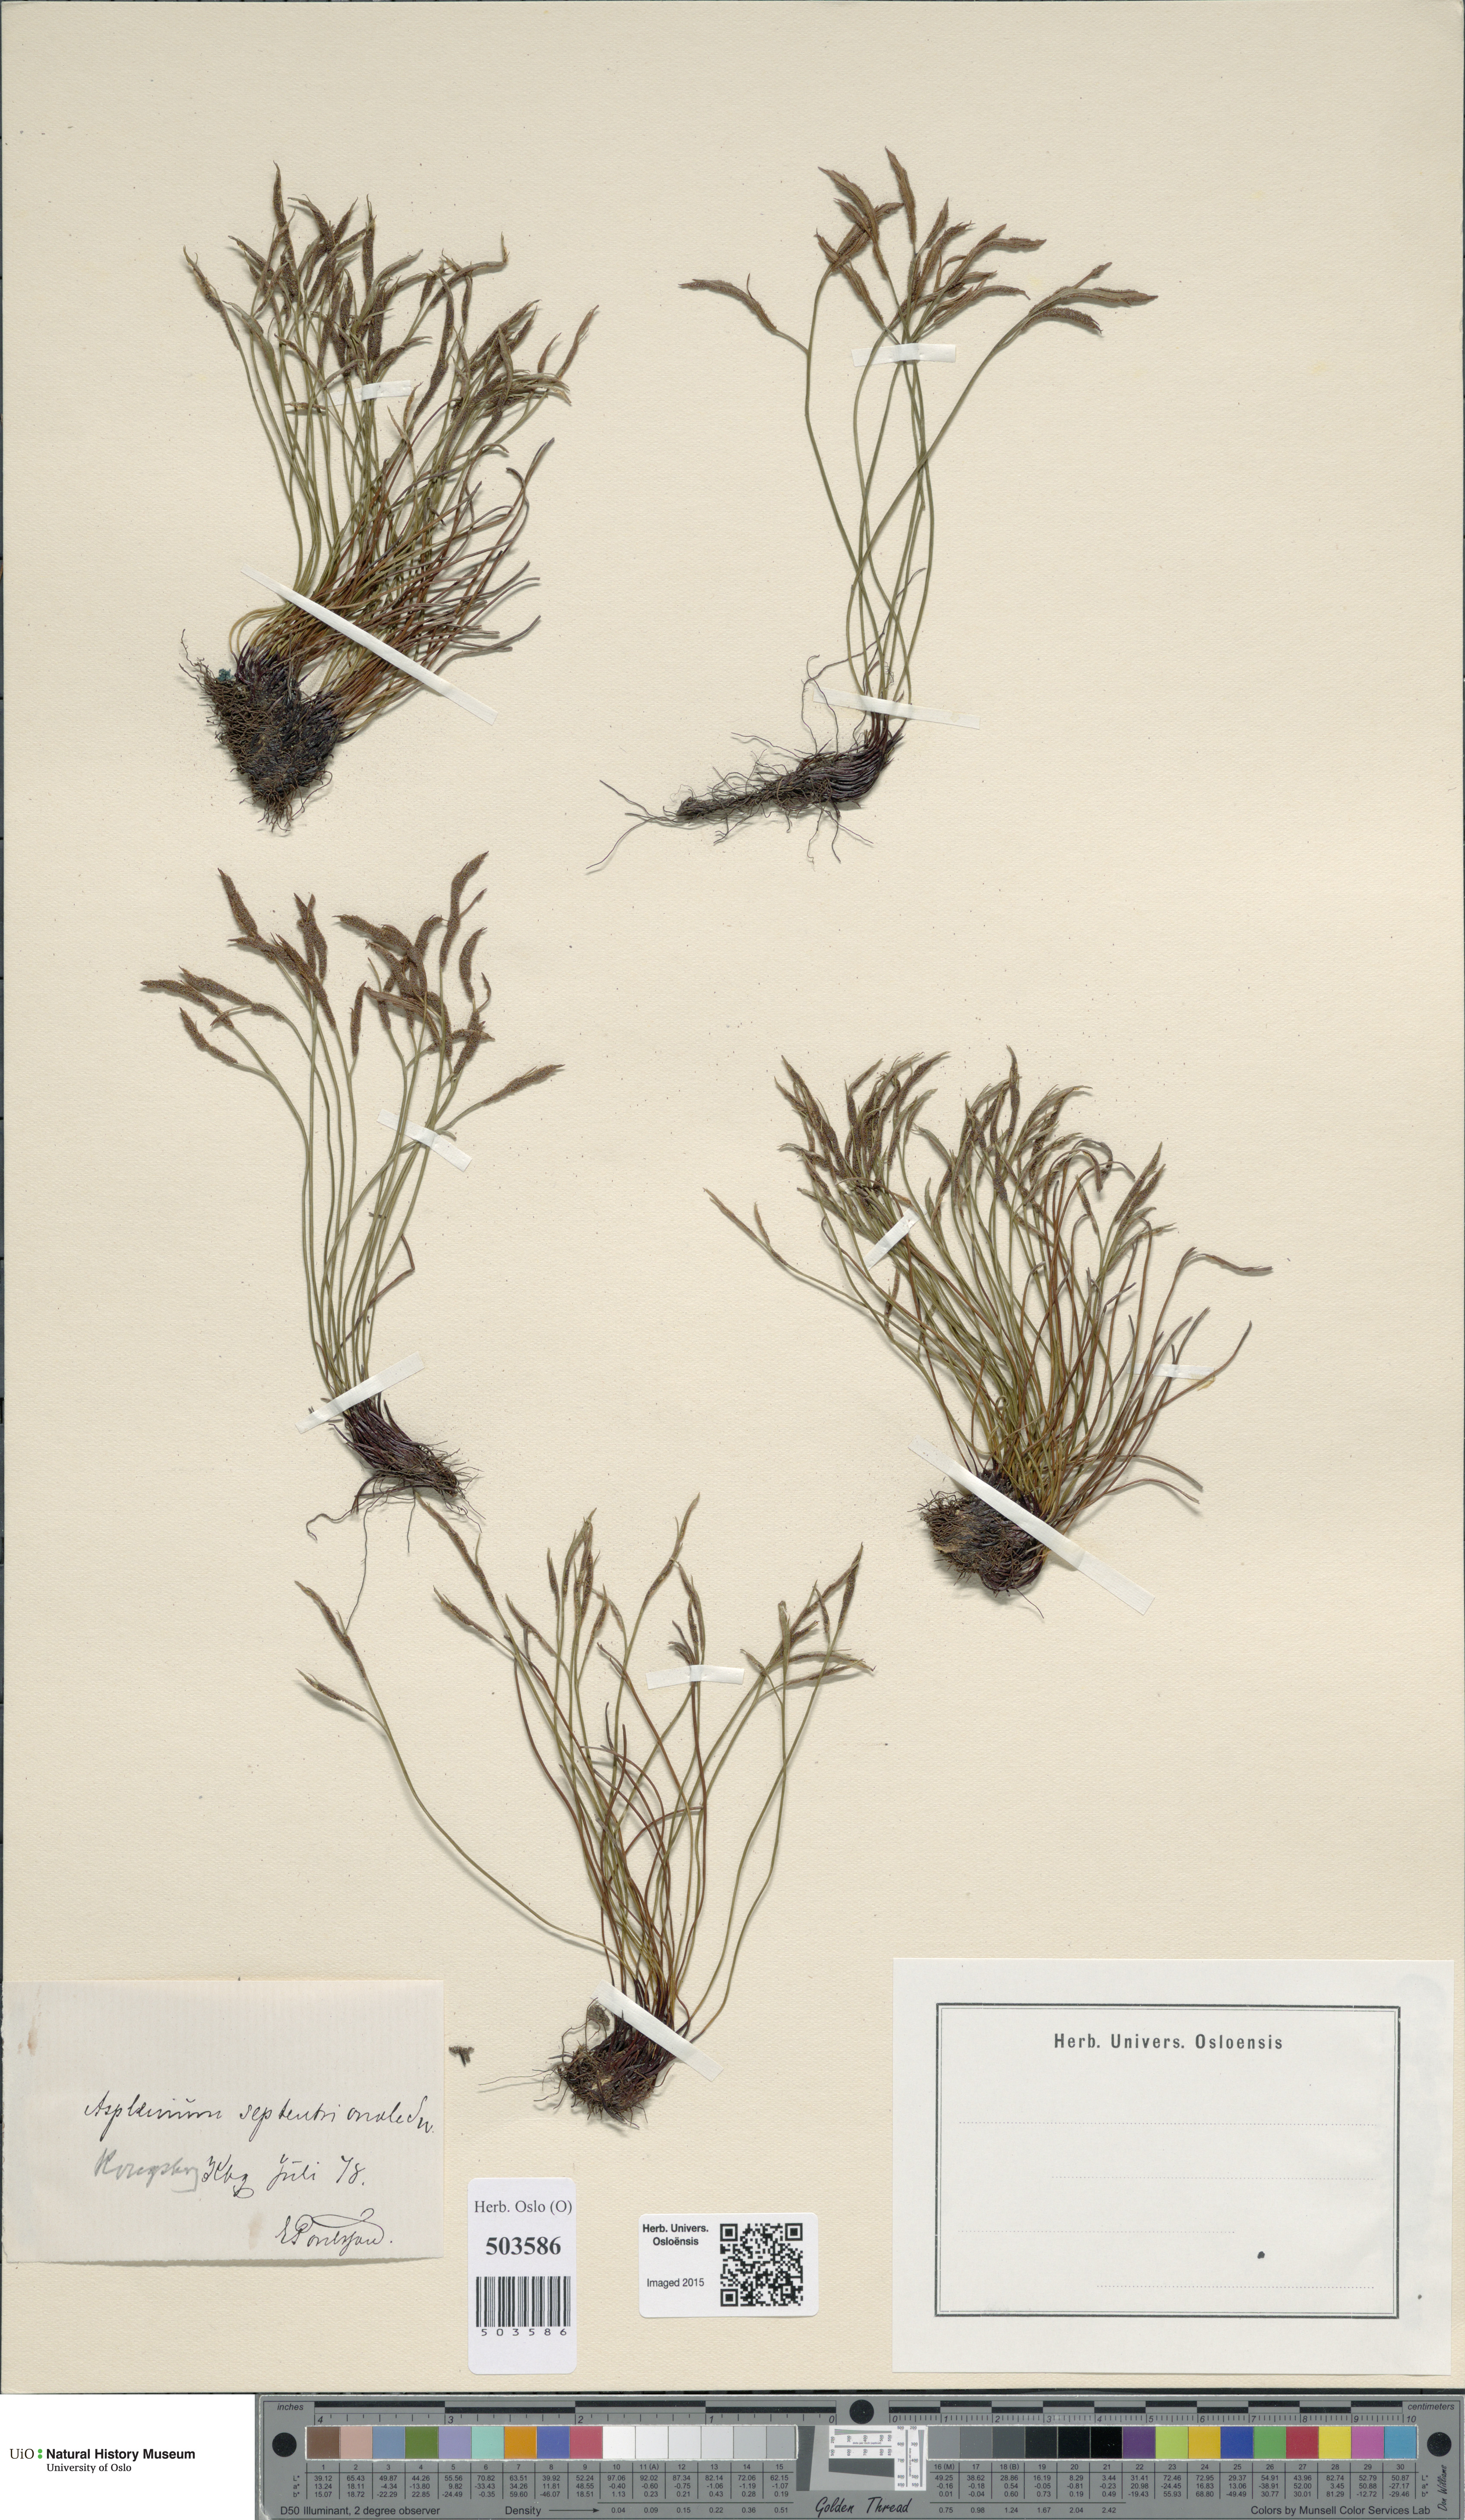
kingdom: Plantae
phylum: Tracheophyta
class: Polypodiopsida
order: Polypodiales
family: Aspleniaceae
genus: Asplenium
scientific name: Asplenium septentrionale
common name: Forked spleenwort
